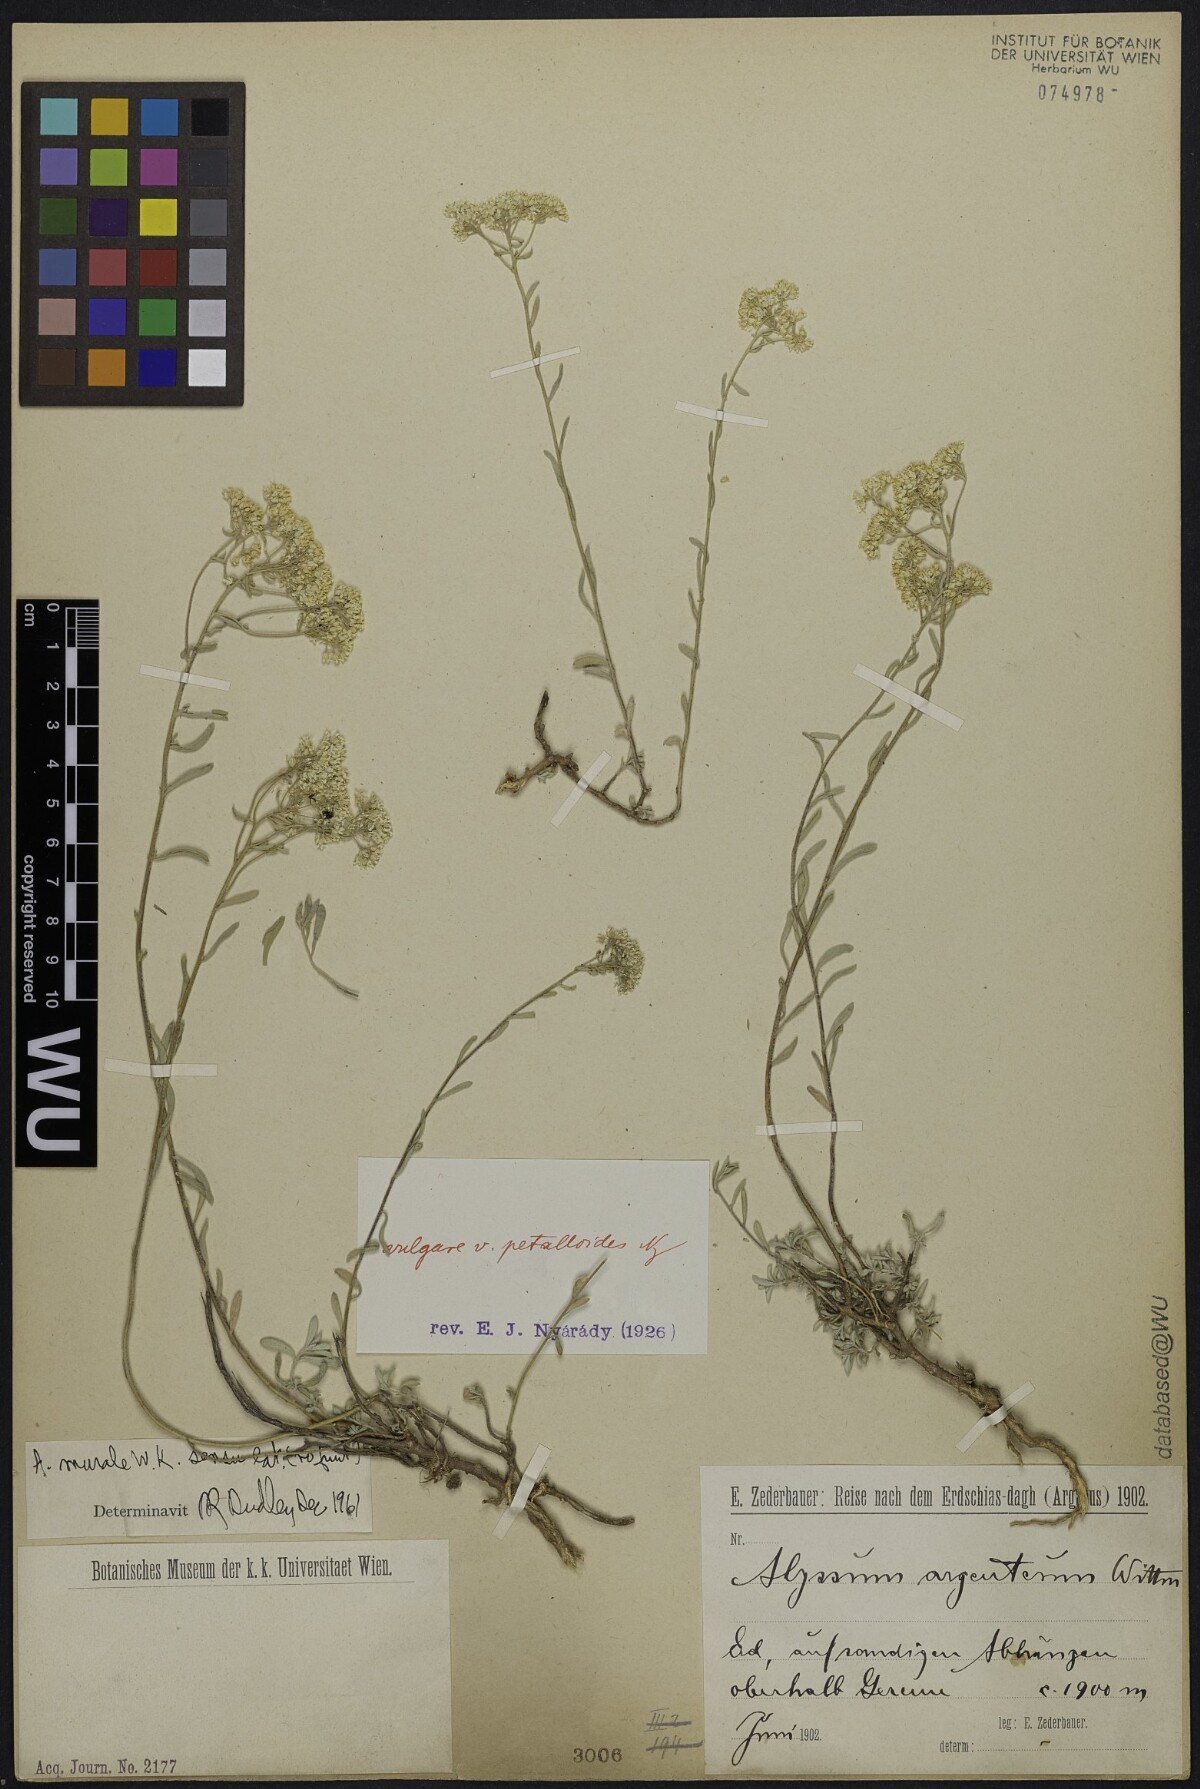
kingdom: Plantae
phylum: Tracheophyta
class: Magnoliopsida
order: Brassicales
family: Brassicaceae
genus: Odontarrhena
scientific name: Odontarrhena muralis
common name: Rock alyssum
